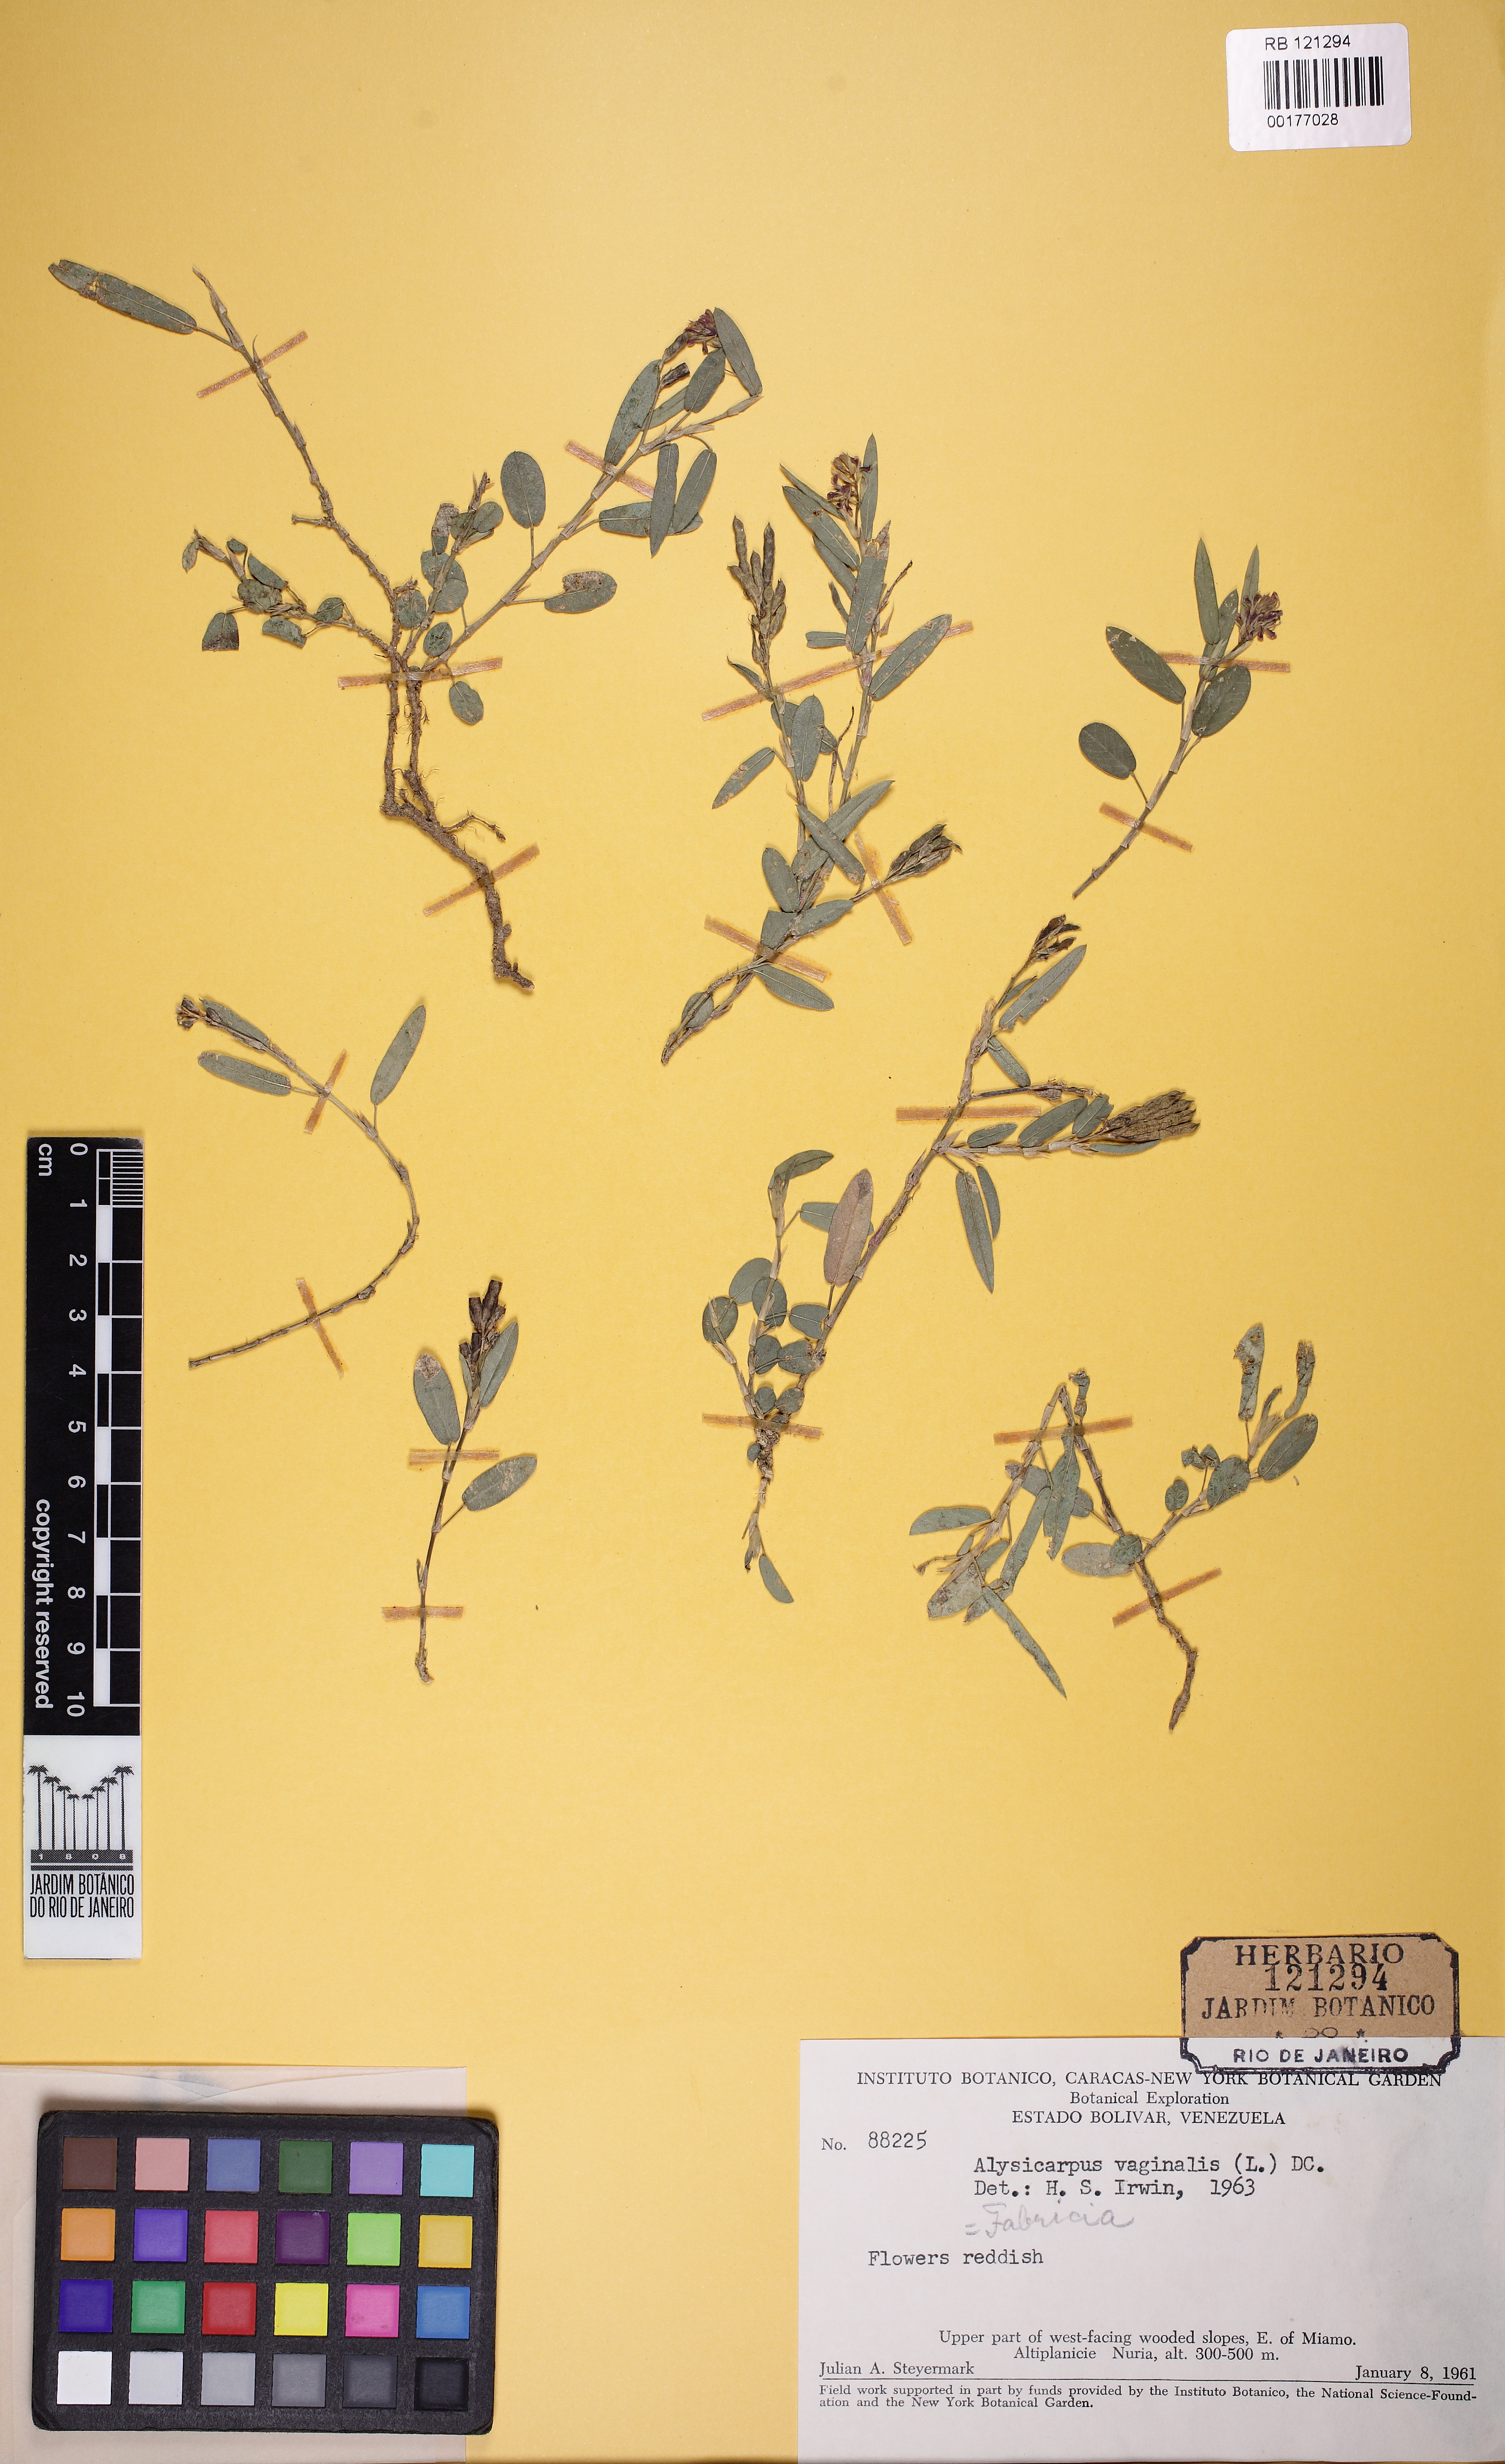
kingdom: Plantae
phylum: Tracheophyta
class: Magnoliopsida
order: Fabales
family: Fabaceae
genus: Alysicarpus
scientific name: Alysicarpus vaginalis
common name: White moneywort
